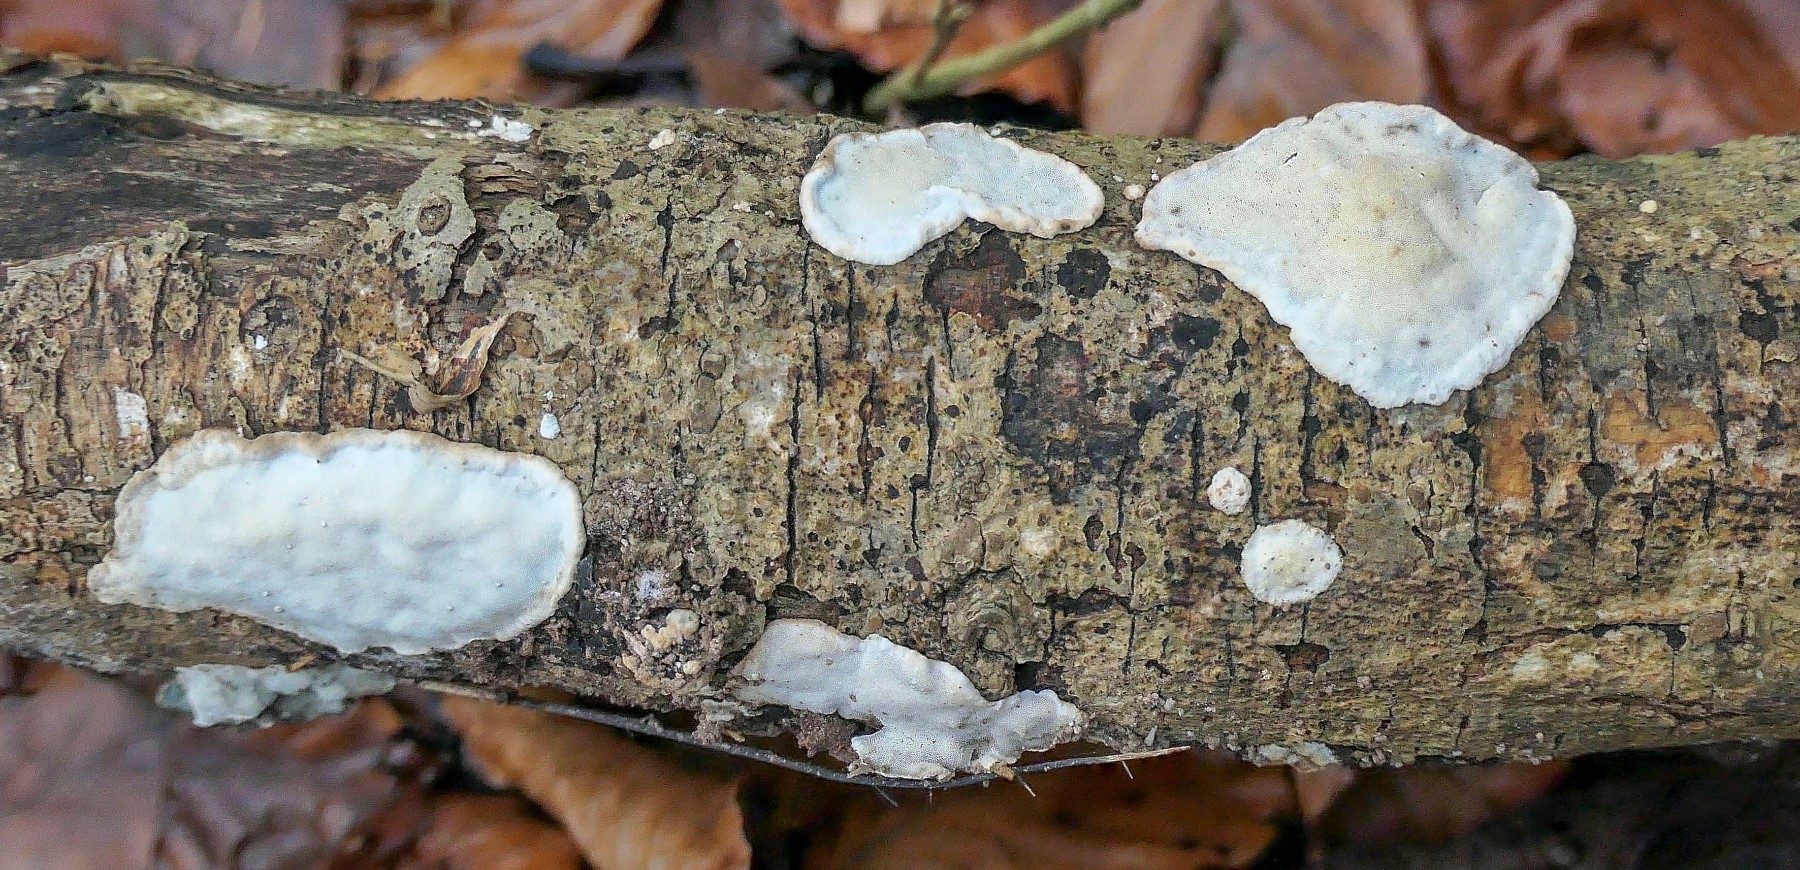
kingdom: Fungi
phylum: Basidiomycota
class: Agaricomycetes
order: Polyporales
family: Incrustoporiaceae
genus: Skeletocutis
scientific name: Skeletocutis nemoralis
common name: stor krystalporesvamp
